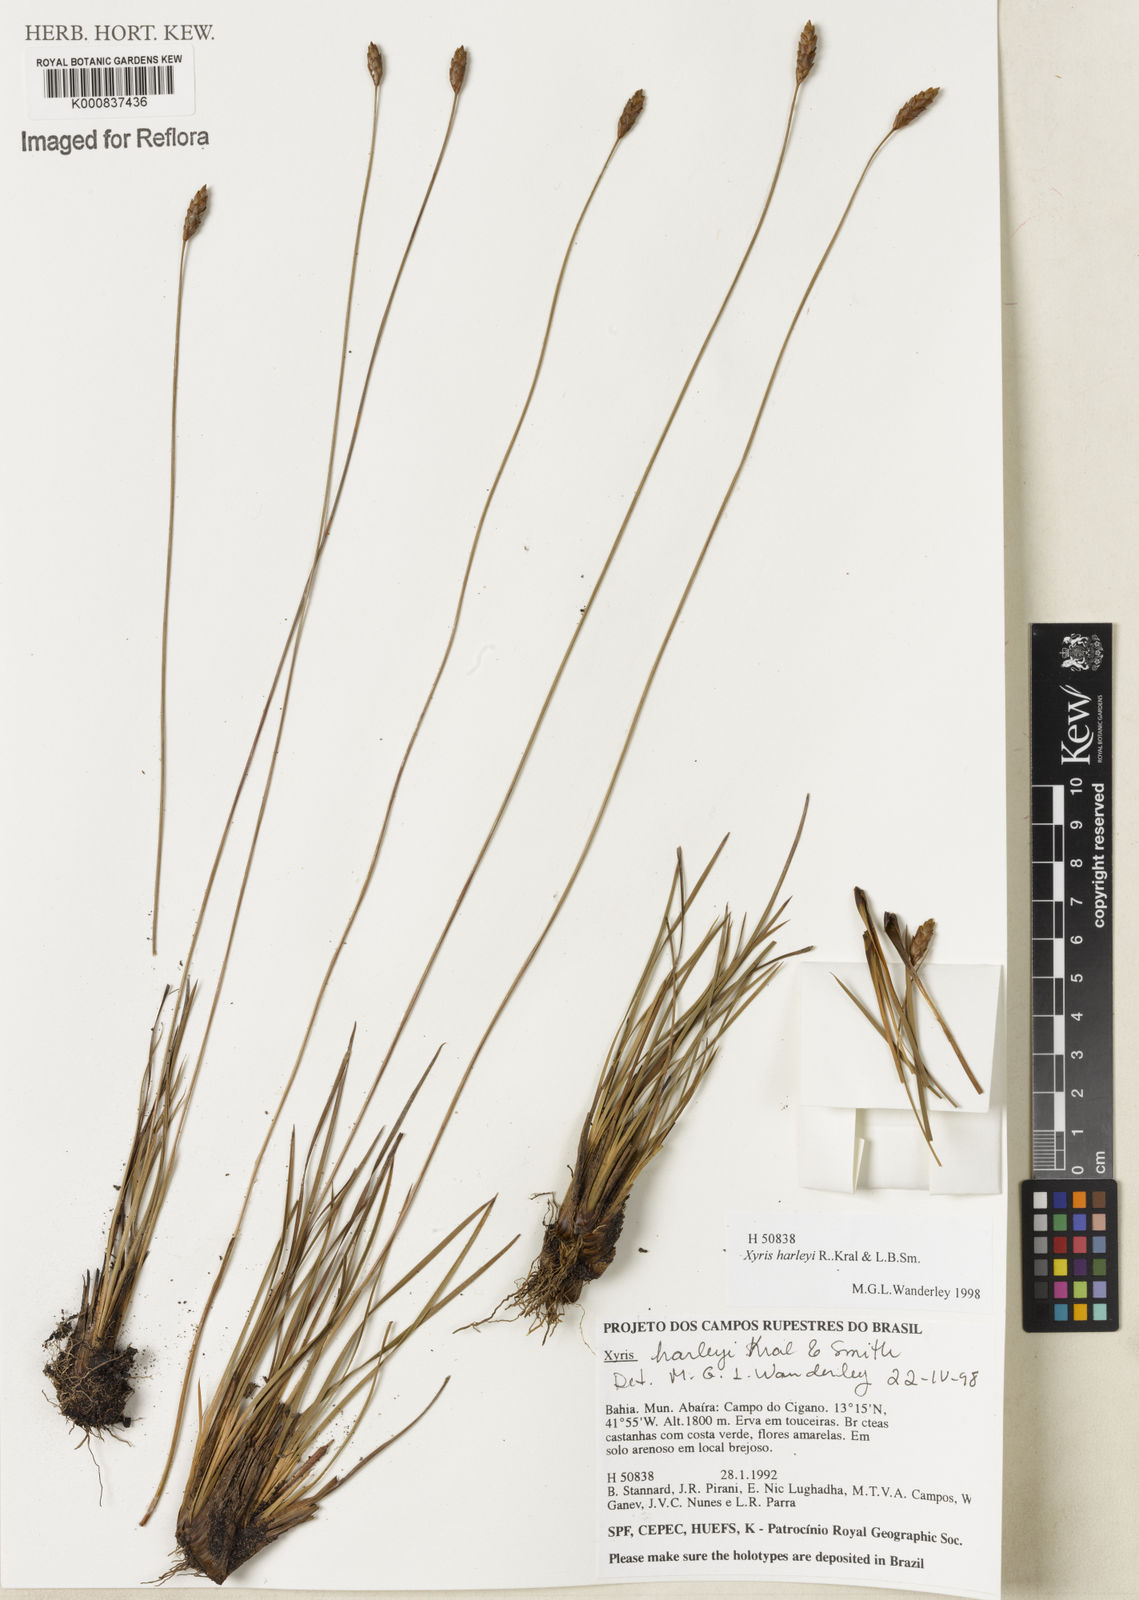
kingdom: Plantae
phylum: Tracheophyta
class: Liliopsida
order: Poales
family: Xyridaceae
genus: Xyris
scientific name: Xyris harleyi
